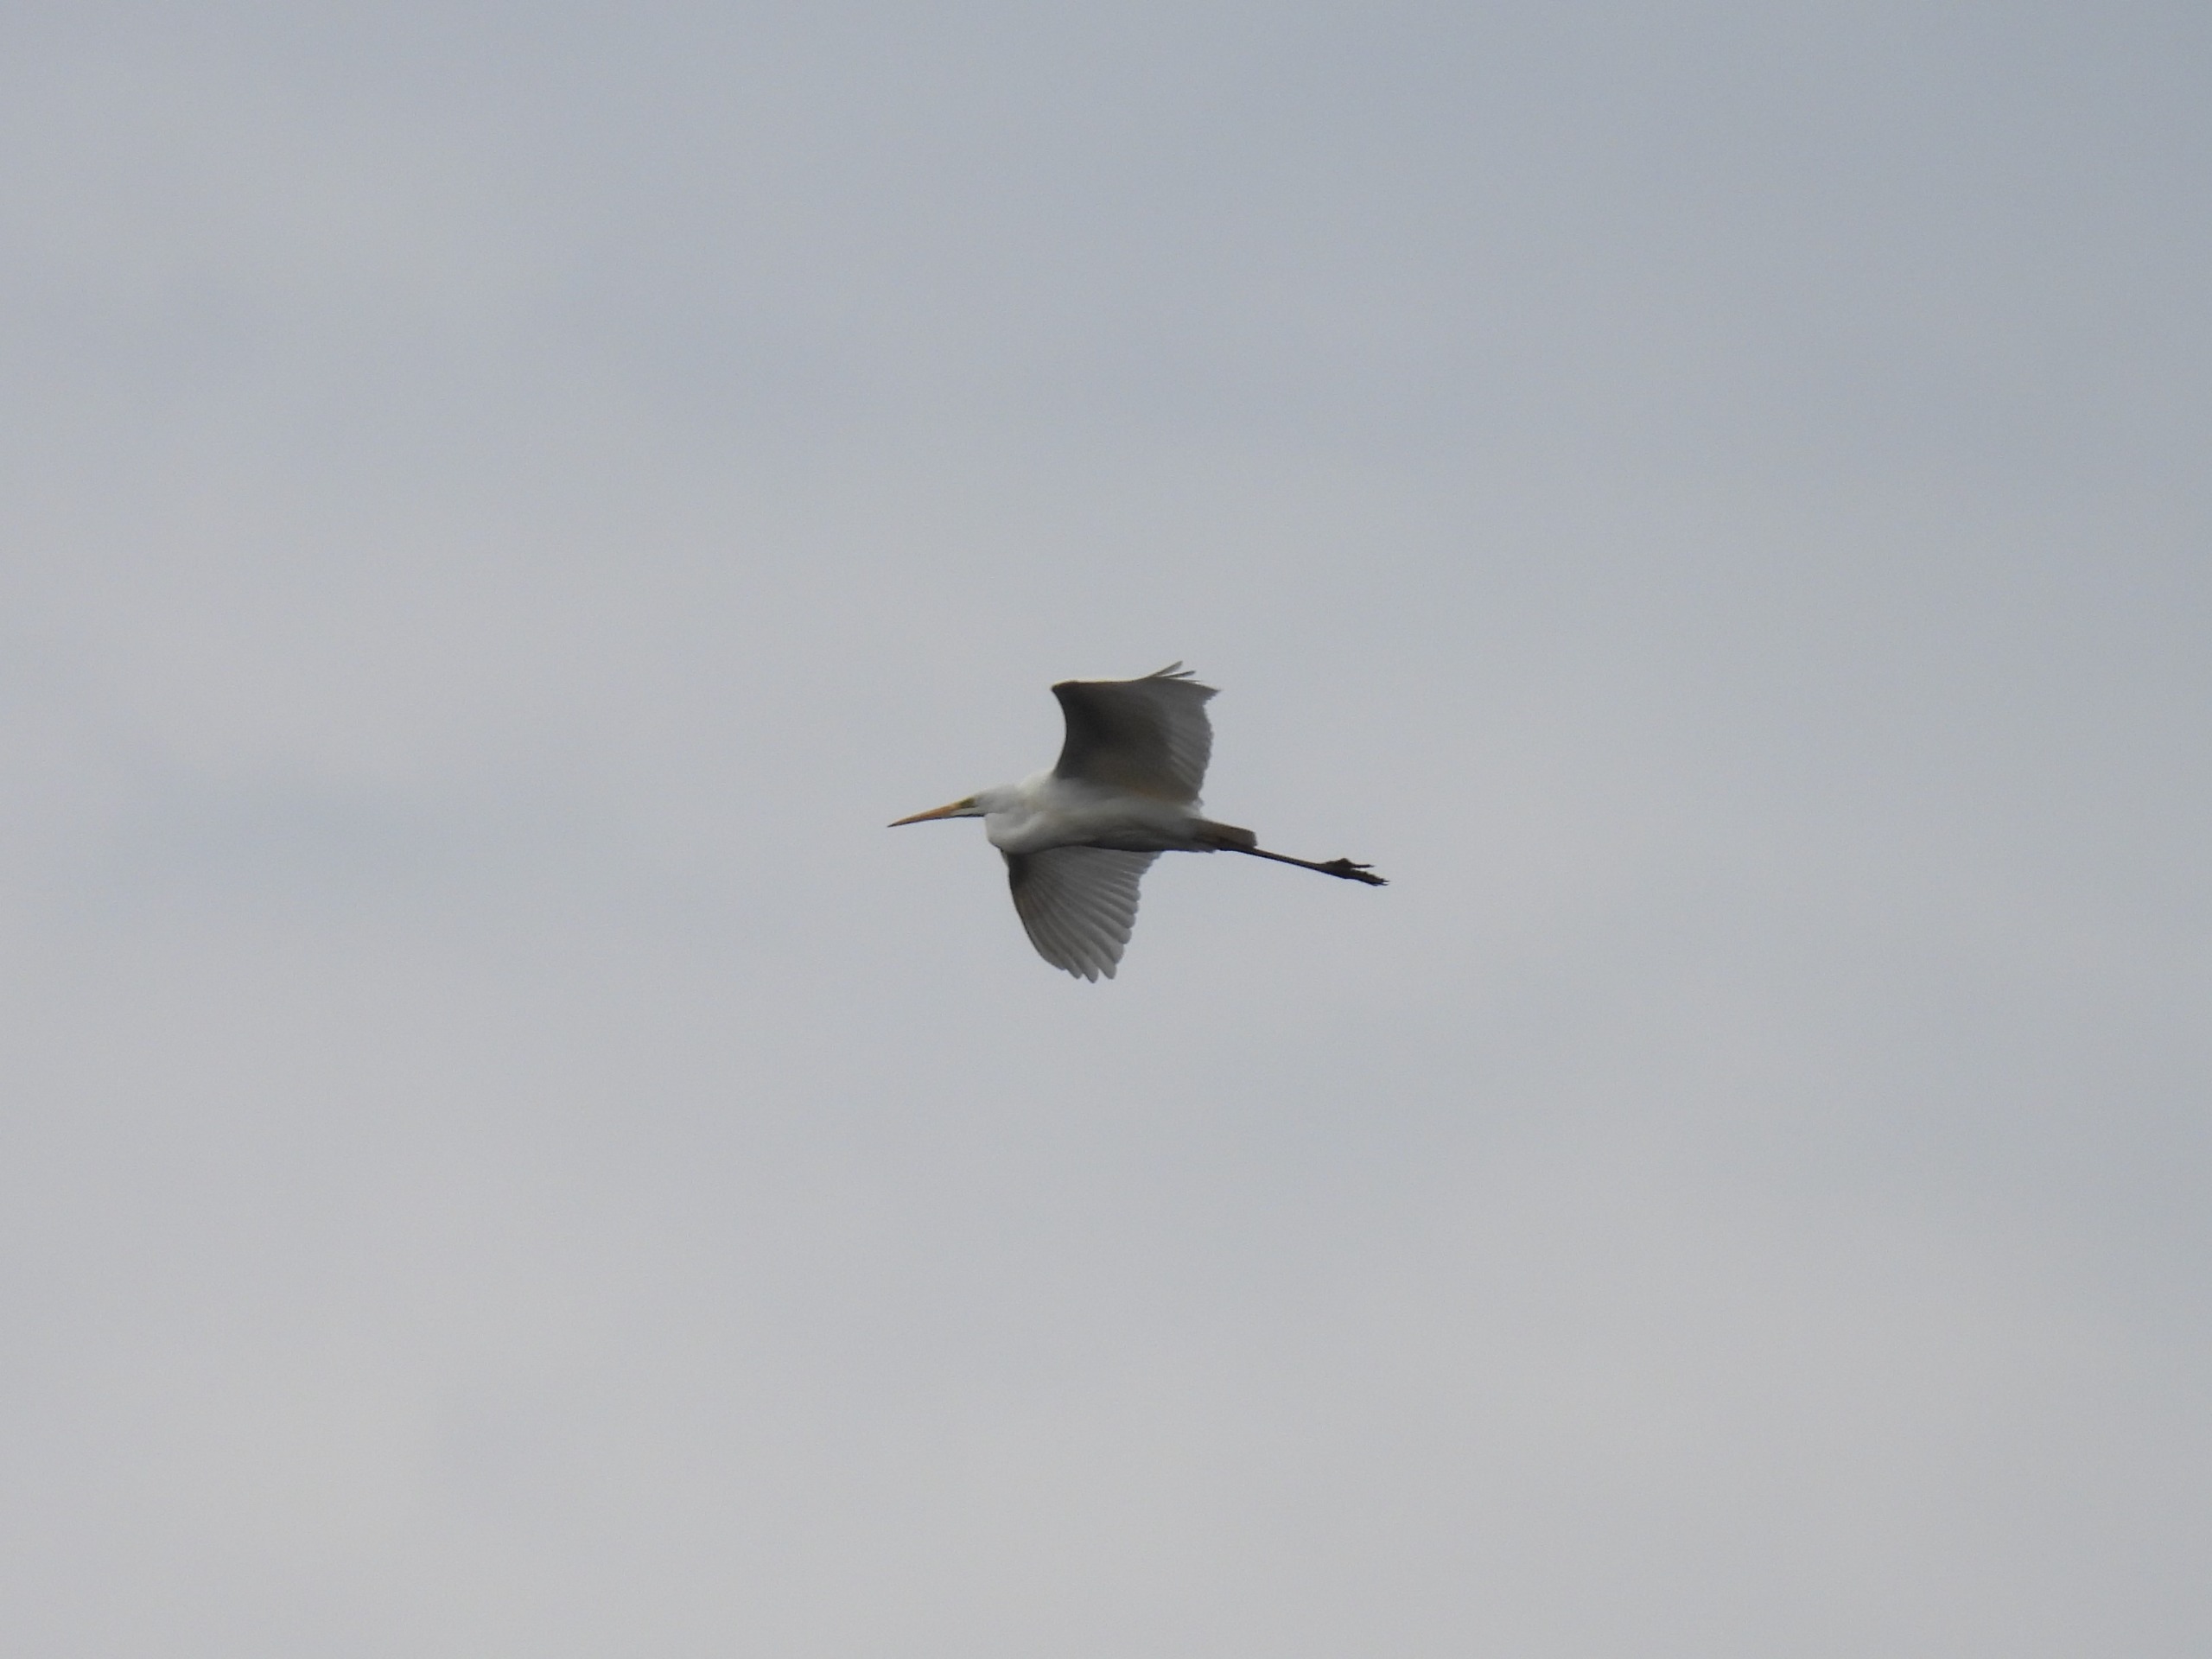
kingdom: Animalia
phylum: Chordata
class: Aves
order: Pelecaniformes
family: Ardeidae
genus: Ardea
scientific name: Ardea alba
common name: Sølvhejre
